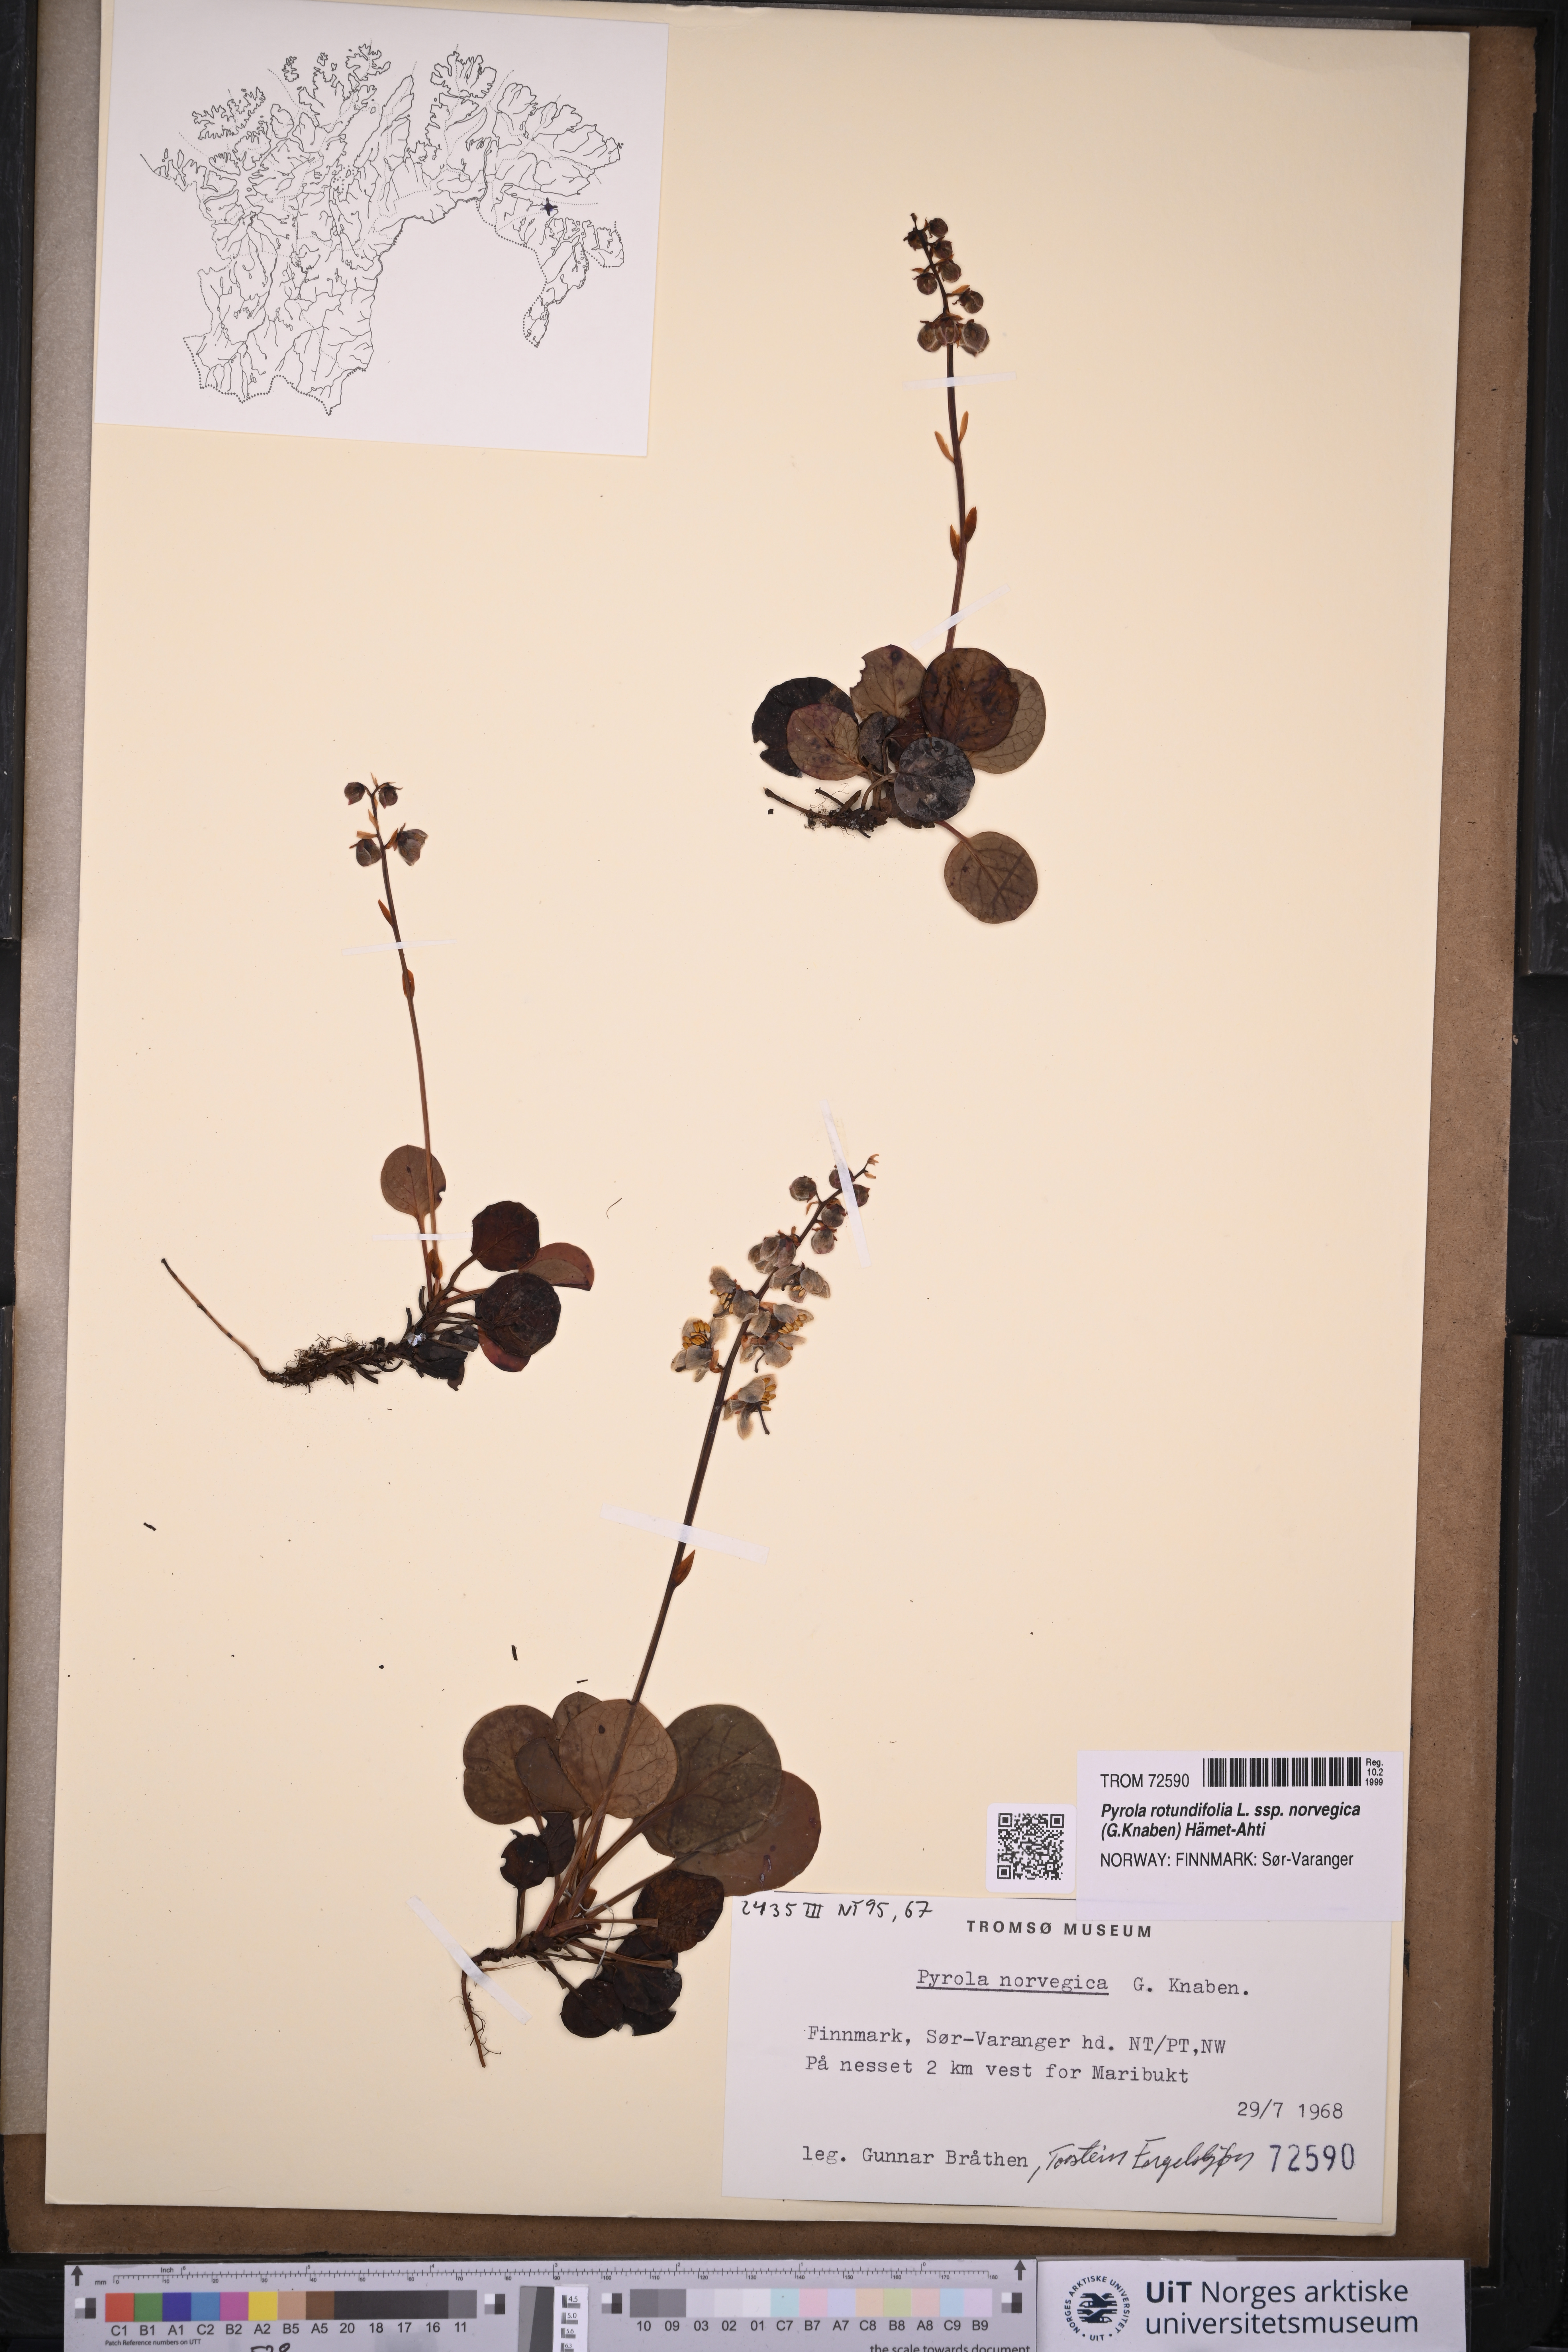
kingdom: Plantae
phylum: Tracheophyta
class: Magnoliopsida
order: Ericales
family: Ericaceae
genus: Pyrola
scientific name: Pyrola rotundifolia
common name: Round-leaved wintergreen
